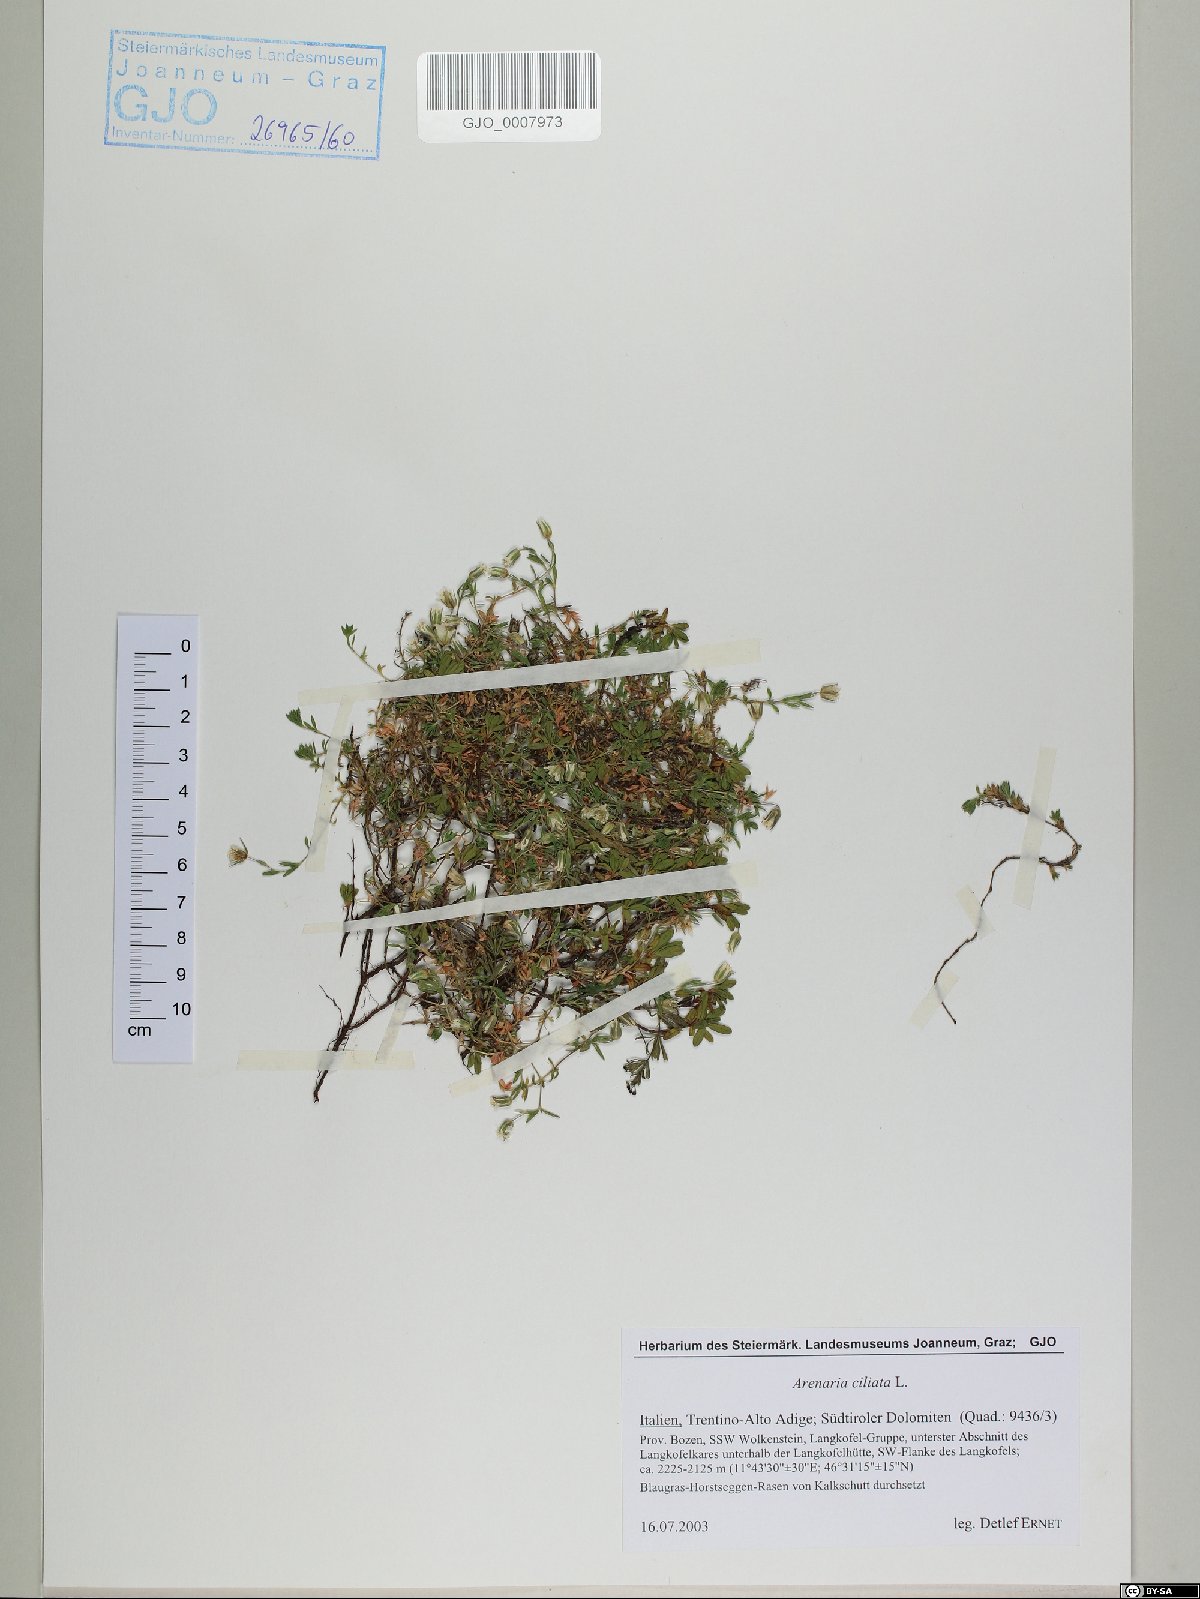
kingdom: Plantae
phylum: Tracheophyta
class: Magnoliopsida
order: Caryophyllales
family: Caryophyllaceae
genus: Arenaria
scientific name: Arenaria ciliata
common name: Fringed sandwort
